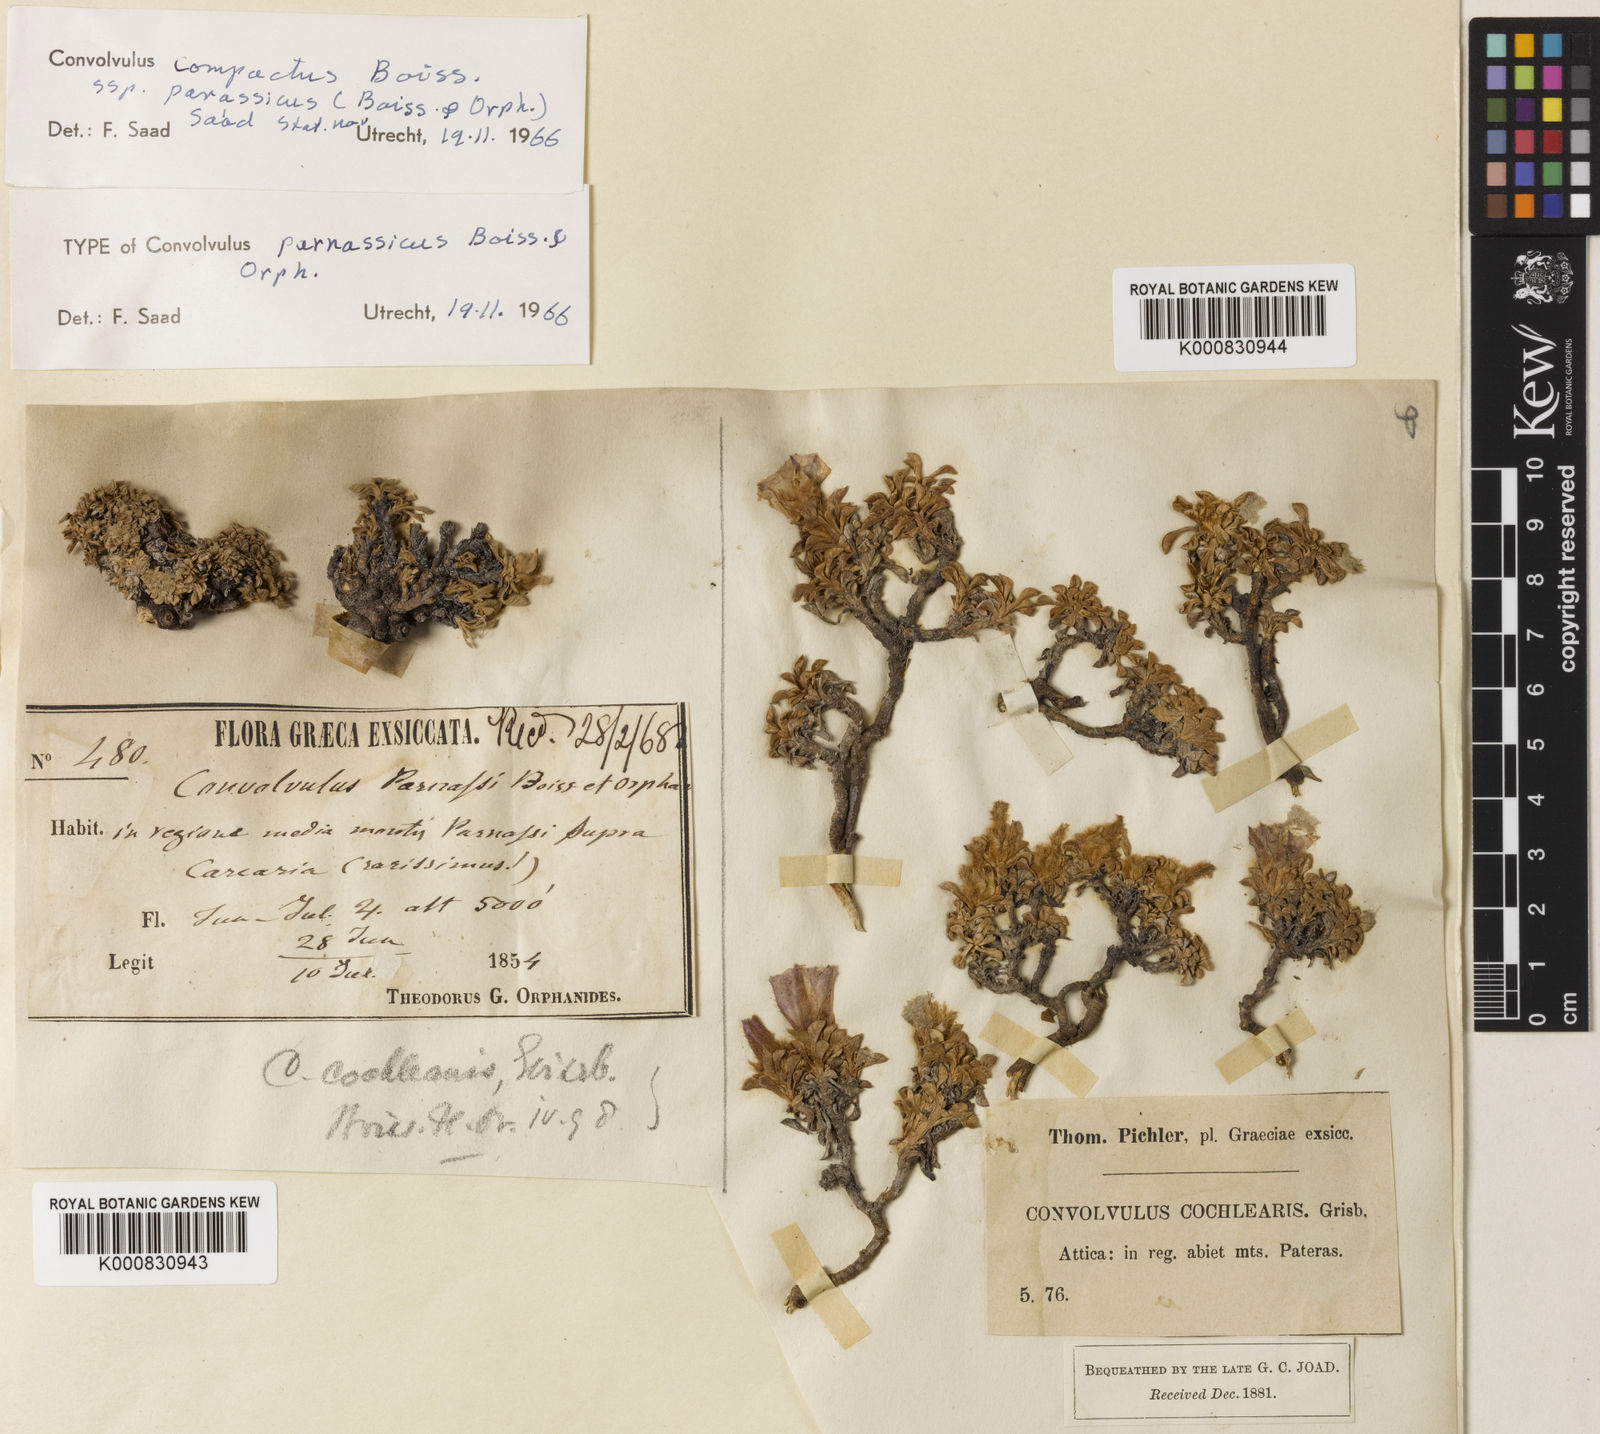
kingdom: Plantae
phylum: Tracheophyta
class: Magnoliopsida
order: Solanales
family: Convolvulaceae
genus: Convolvulus
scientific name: Convolvulus boissieri
